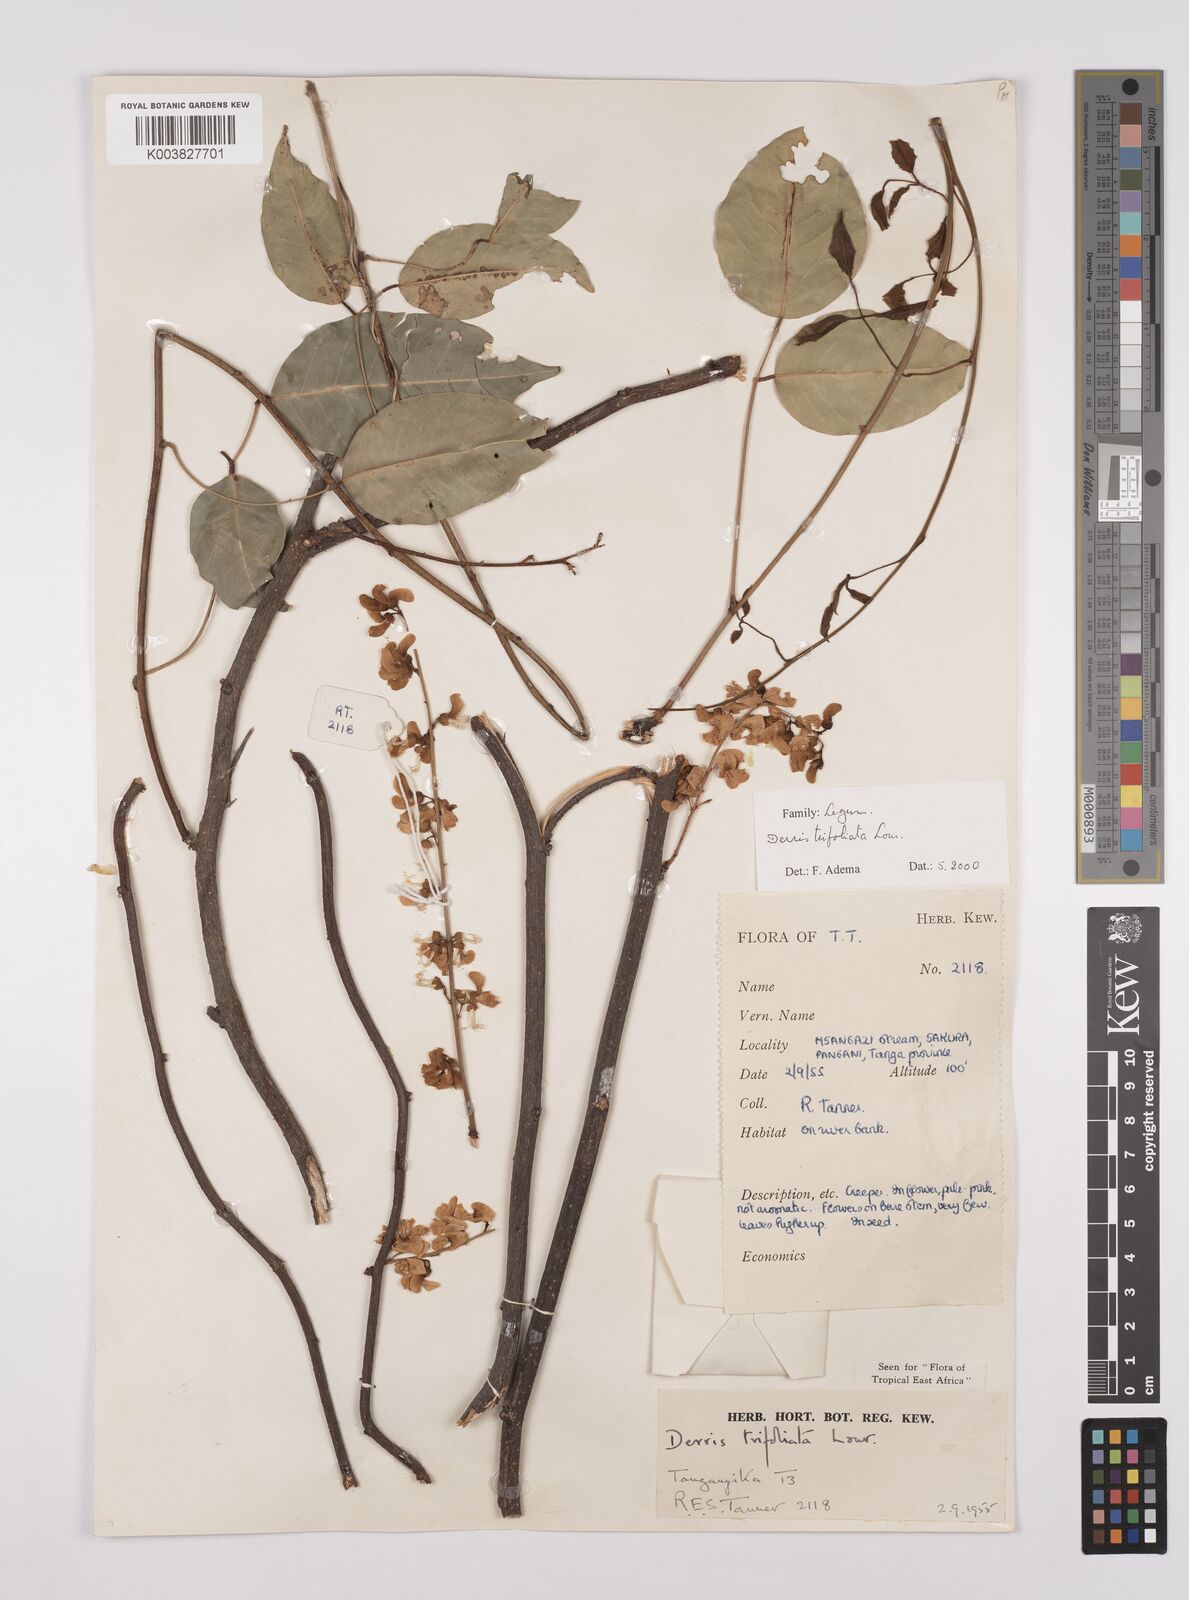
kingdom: Plantae
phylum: Tracheophyta
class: Magnoliopsida
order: Fabales
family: Fabaceae
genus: Derris
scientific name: Derris trifoliata
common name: Three-leaf derris
